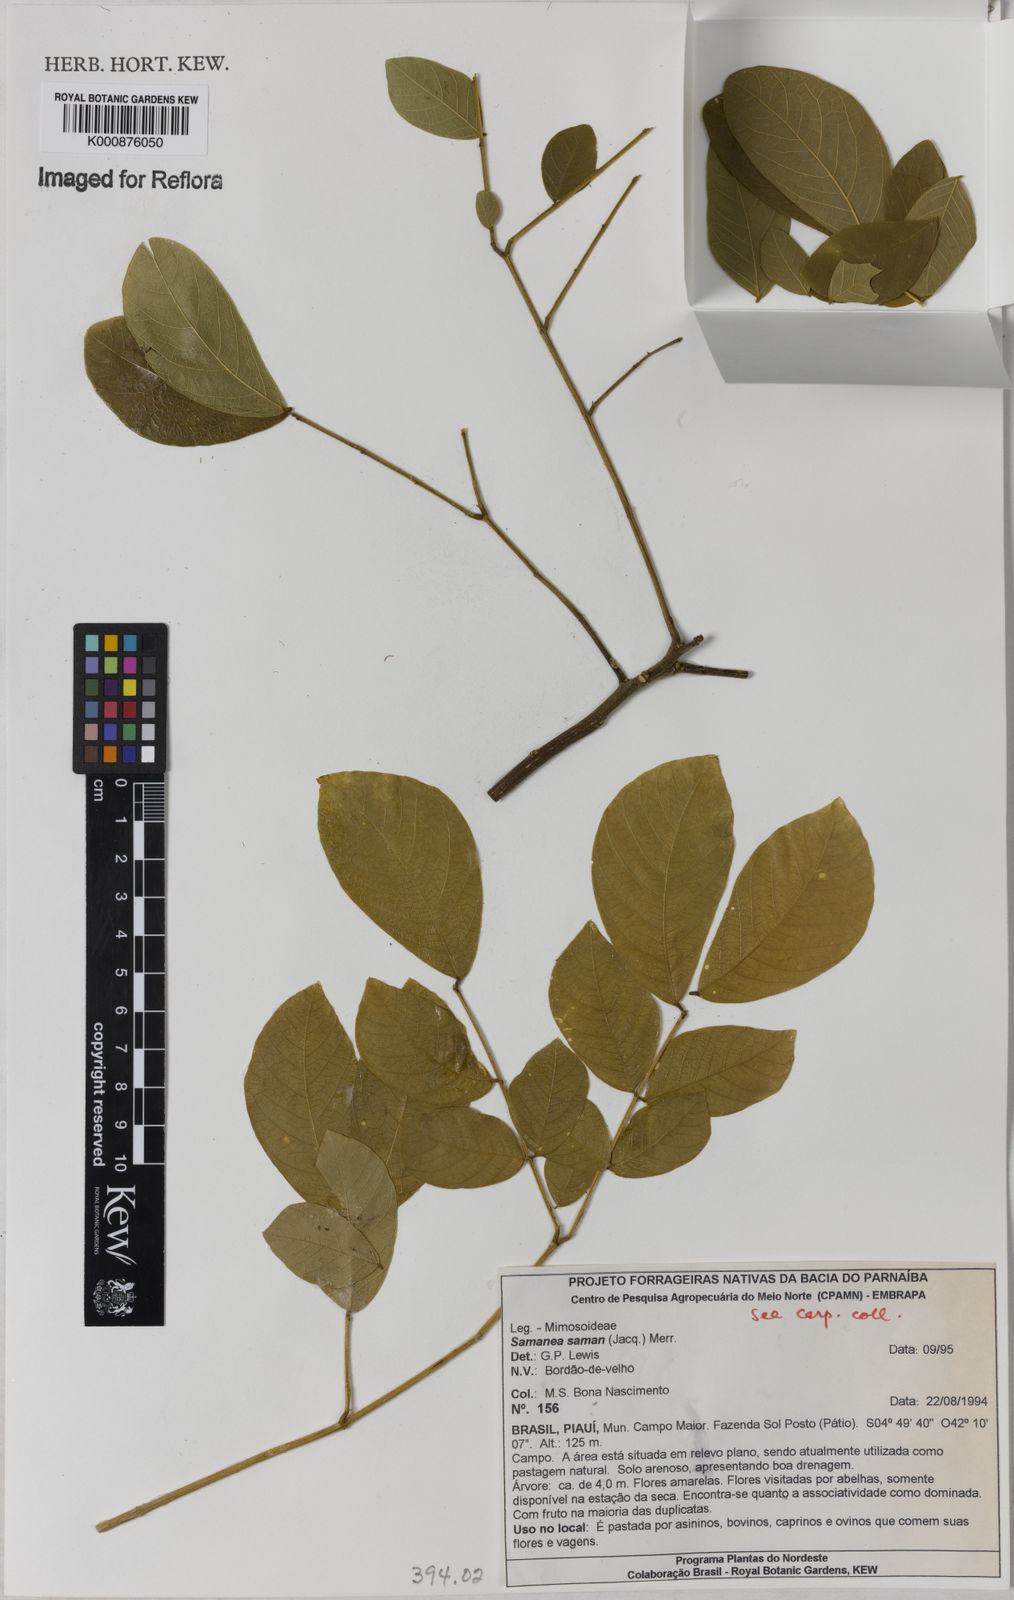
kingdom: Plantae
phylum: Tracheophyta
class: Magnoliopsida
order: Fabales
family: Fabaceae
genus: Samanea
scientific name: Samanea saman
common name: Raintree
